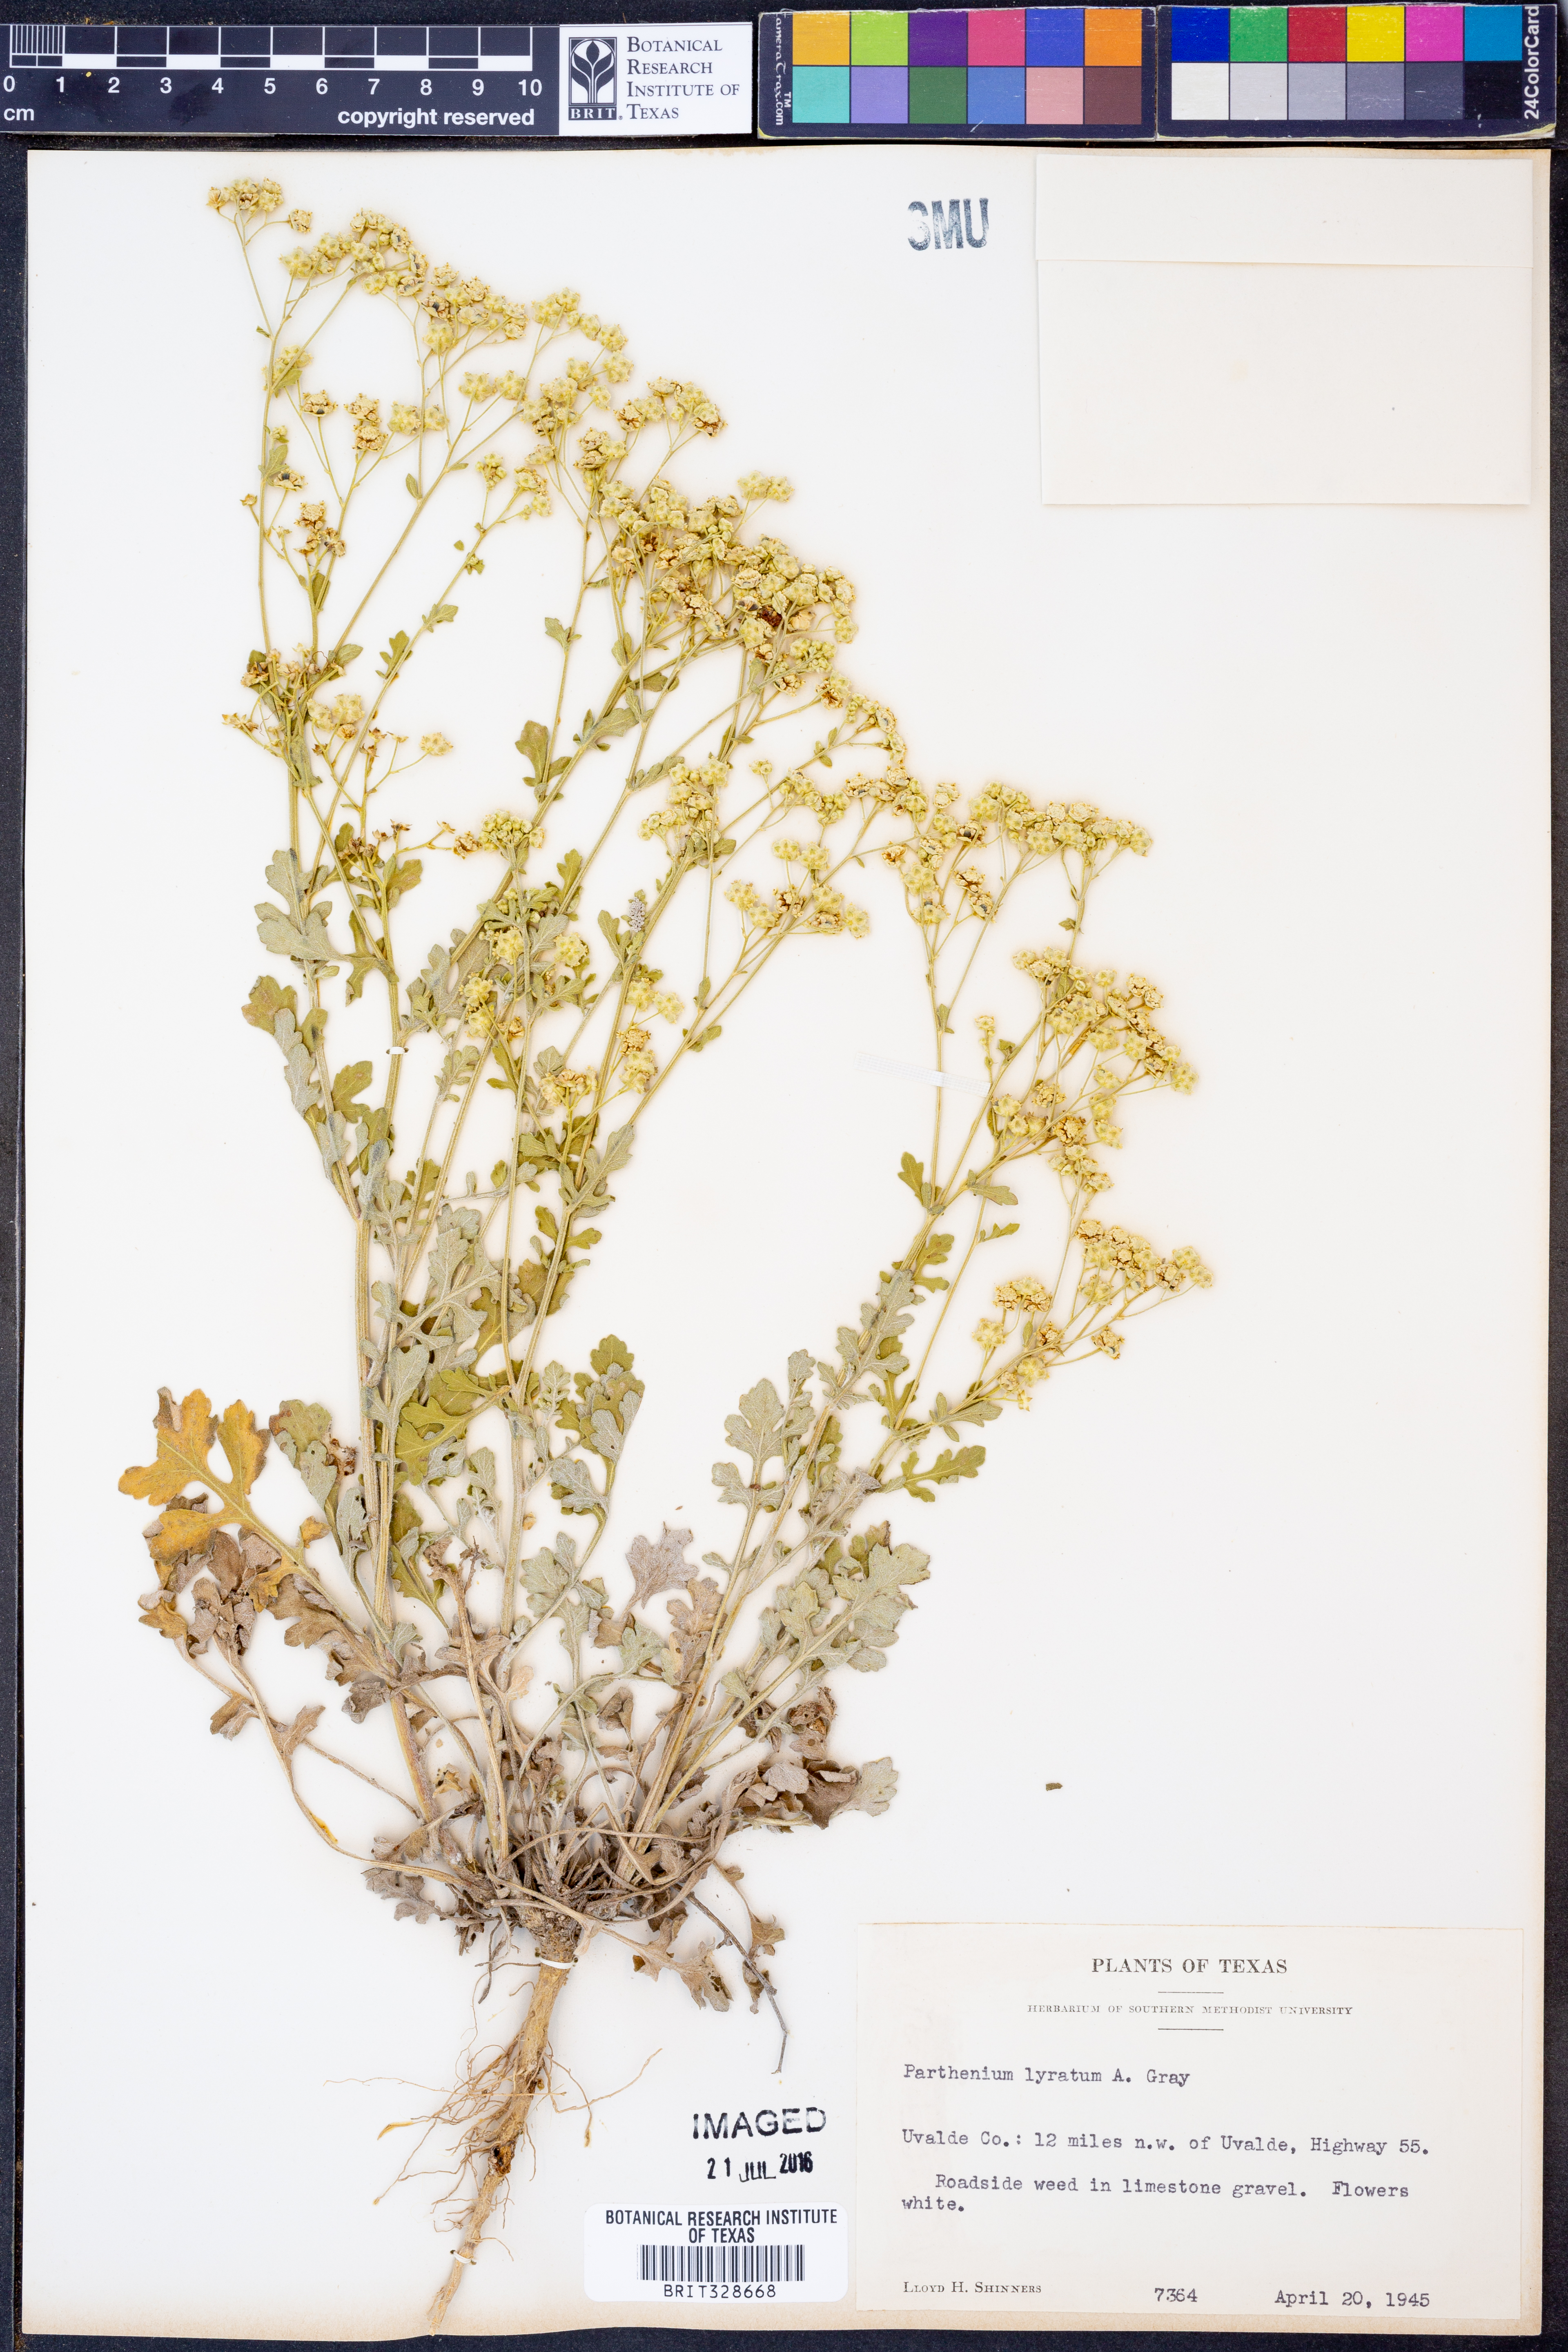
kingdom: Plantae
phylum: Tracheophyta
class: Magnoliopsida
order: Asterales
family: Asteraceae
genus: Parthenium
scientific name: Parthenium confertum
